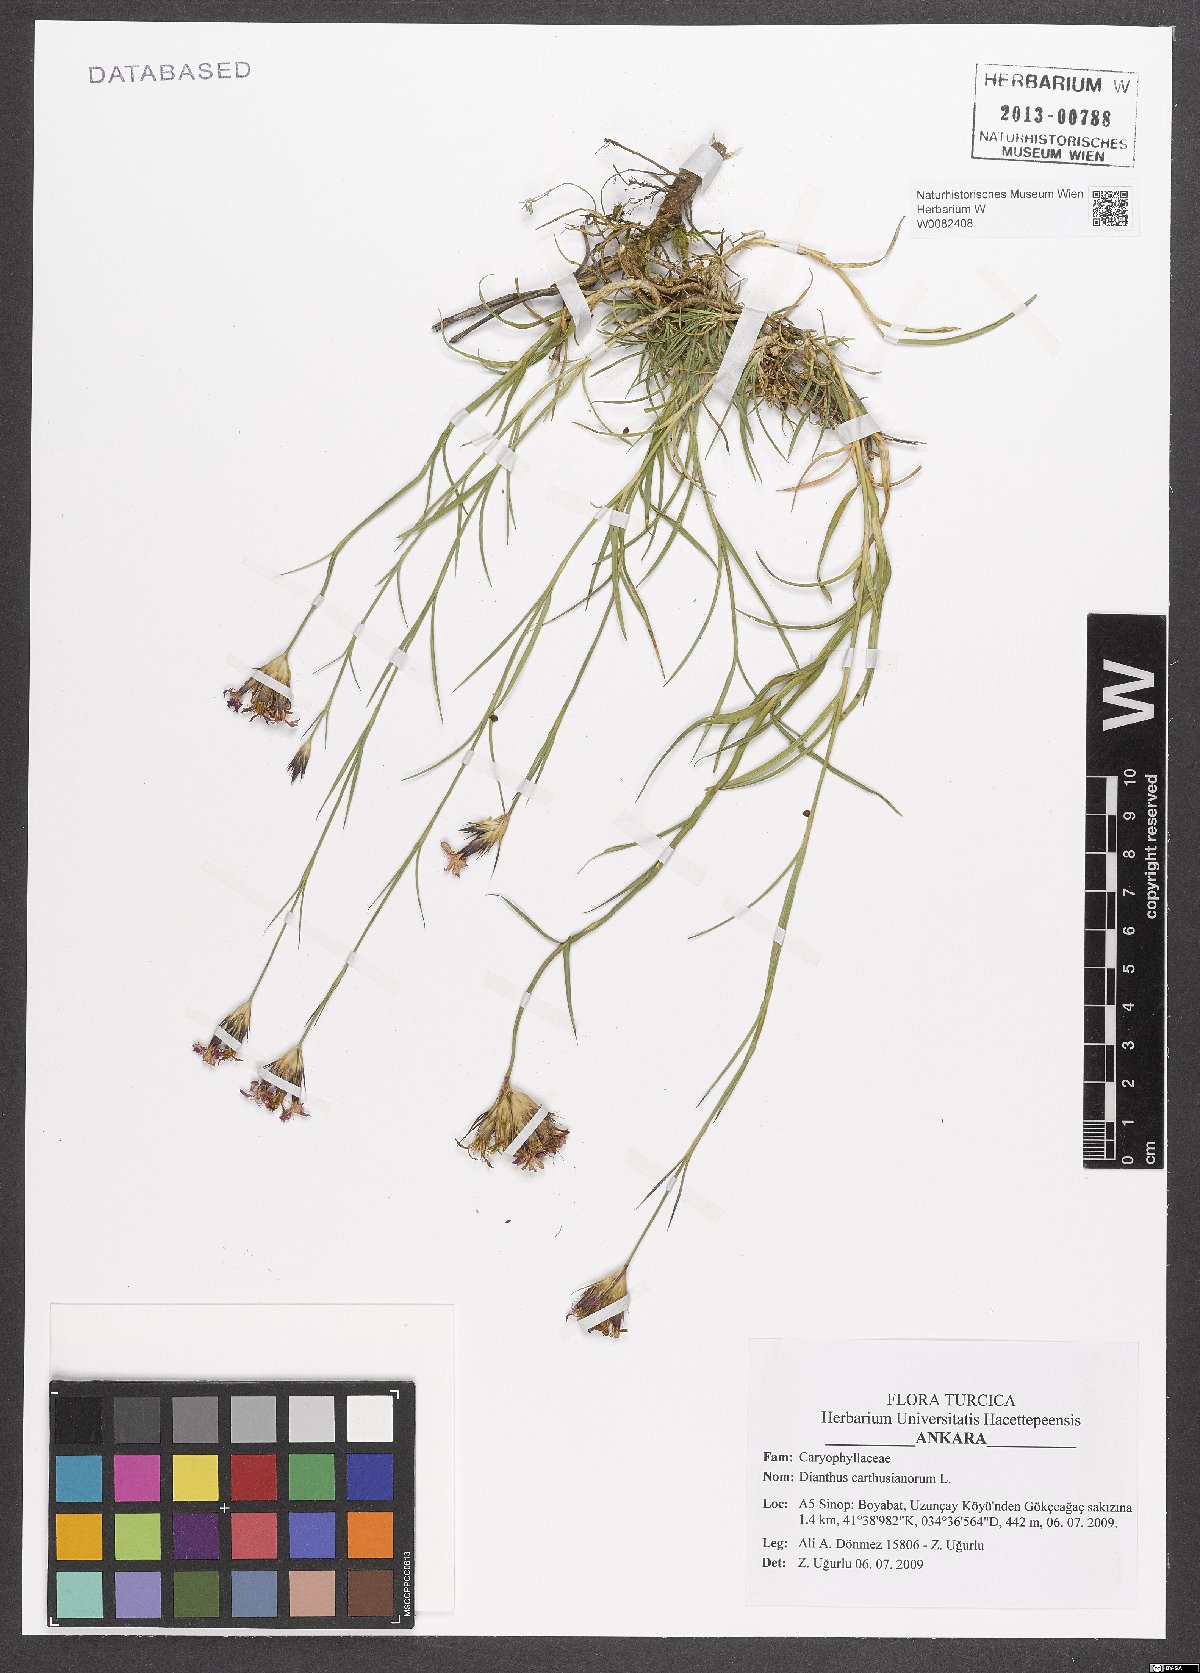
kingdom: Plantae
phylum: Tracheophyta
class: Magnoliopsida
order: Caryophyllales
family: Caryophyllaceae
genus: Dianthus
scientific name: Dianthus carthusianorum
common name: Carthusian pink
